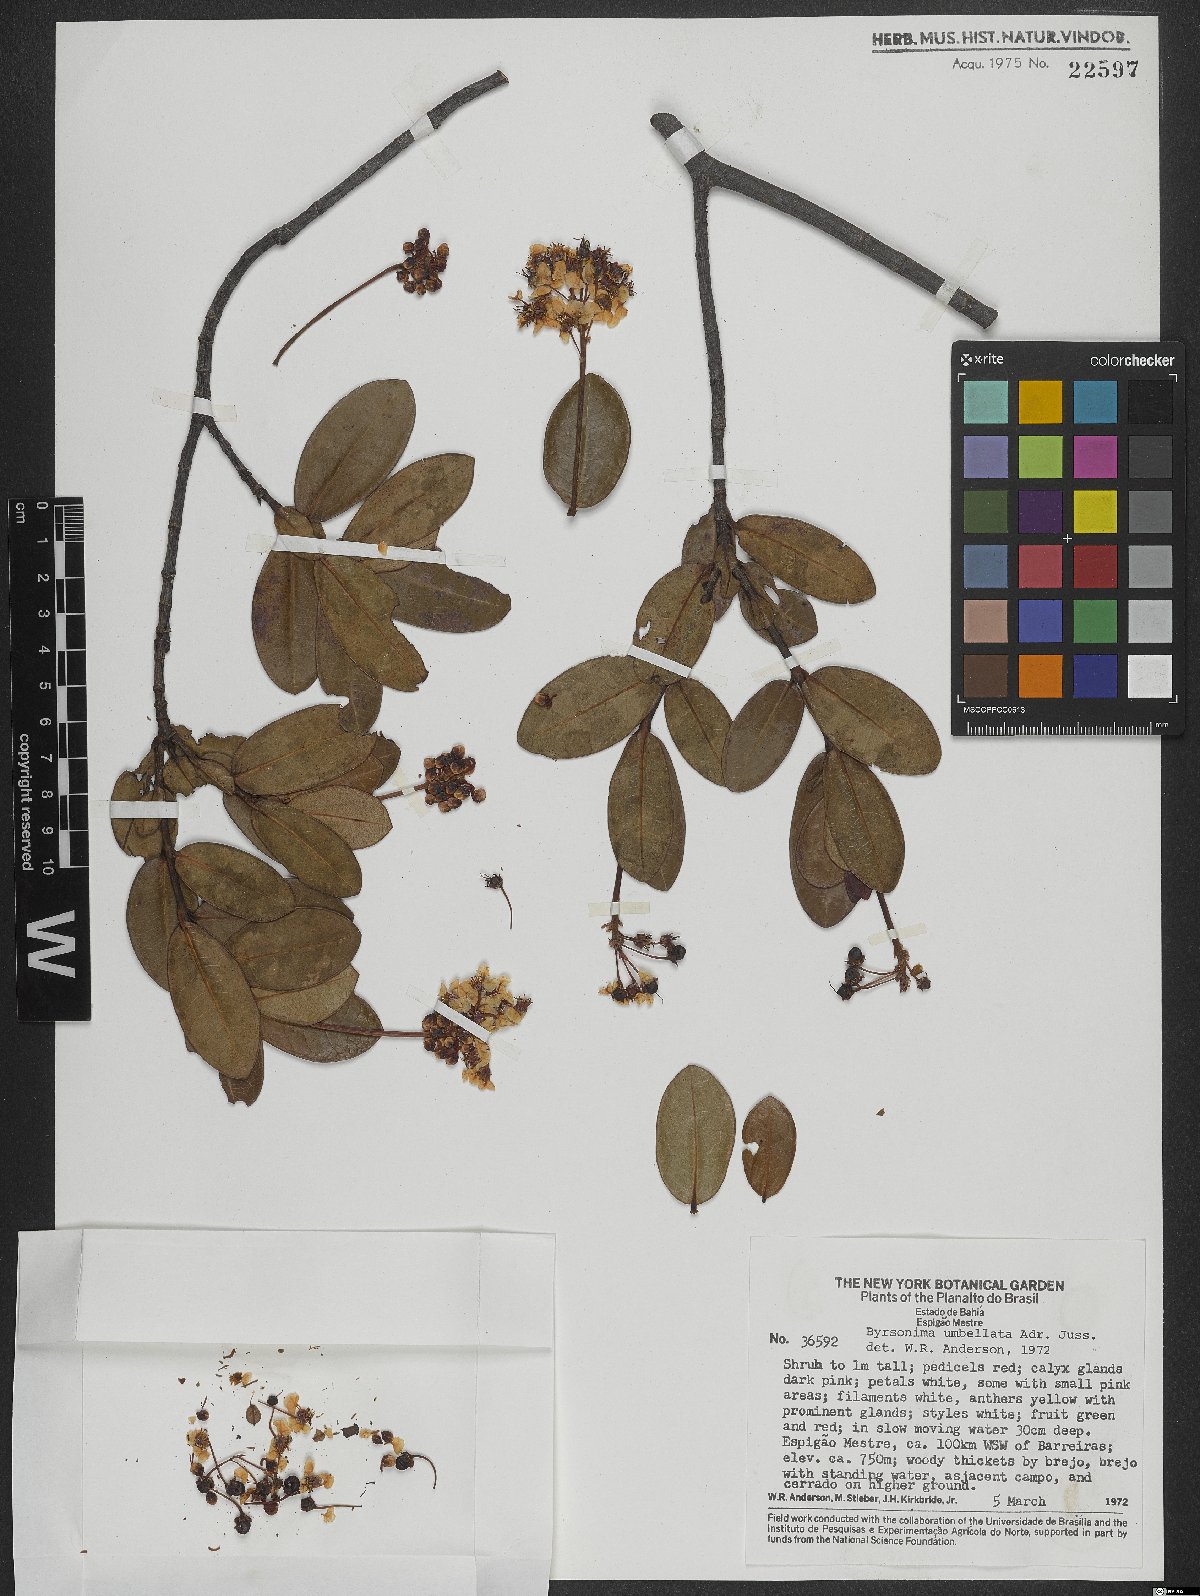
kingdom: Plantae
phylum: Tracheophyta
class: Magnoliopsida
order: Malpighiales
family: Malpighiaceae
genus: Byrsonima
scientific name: Byrsonima umbellata
